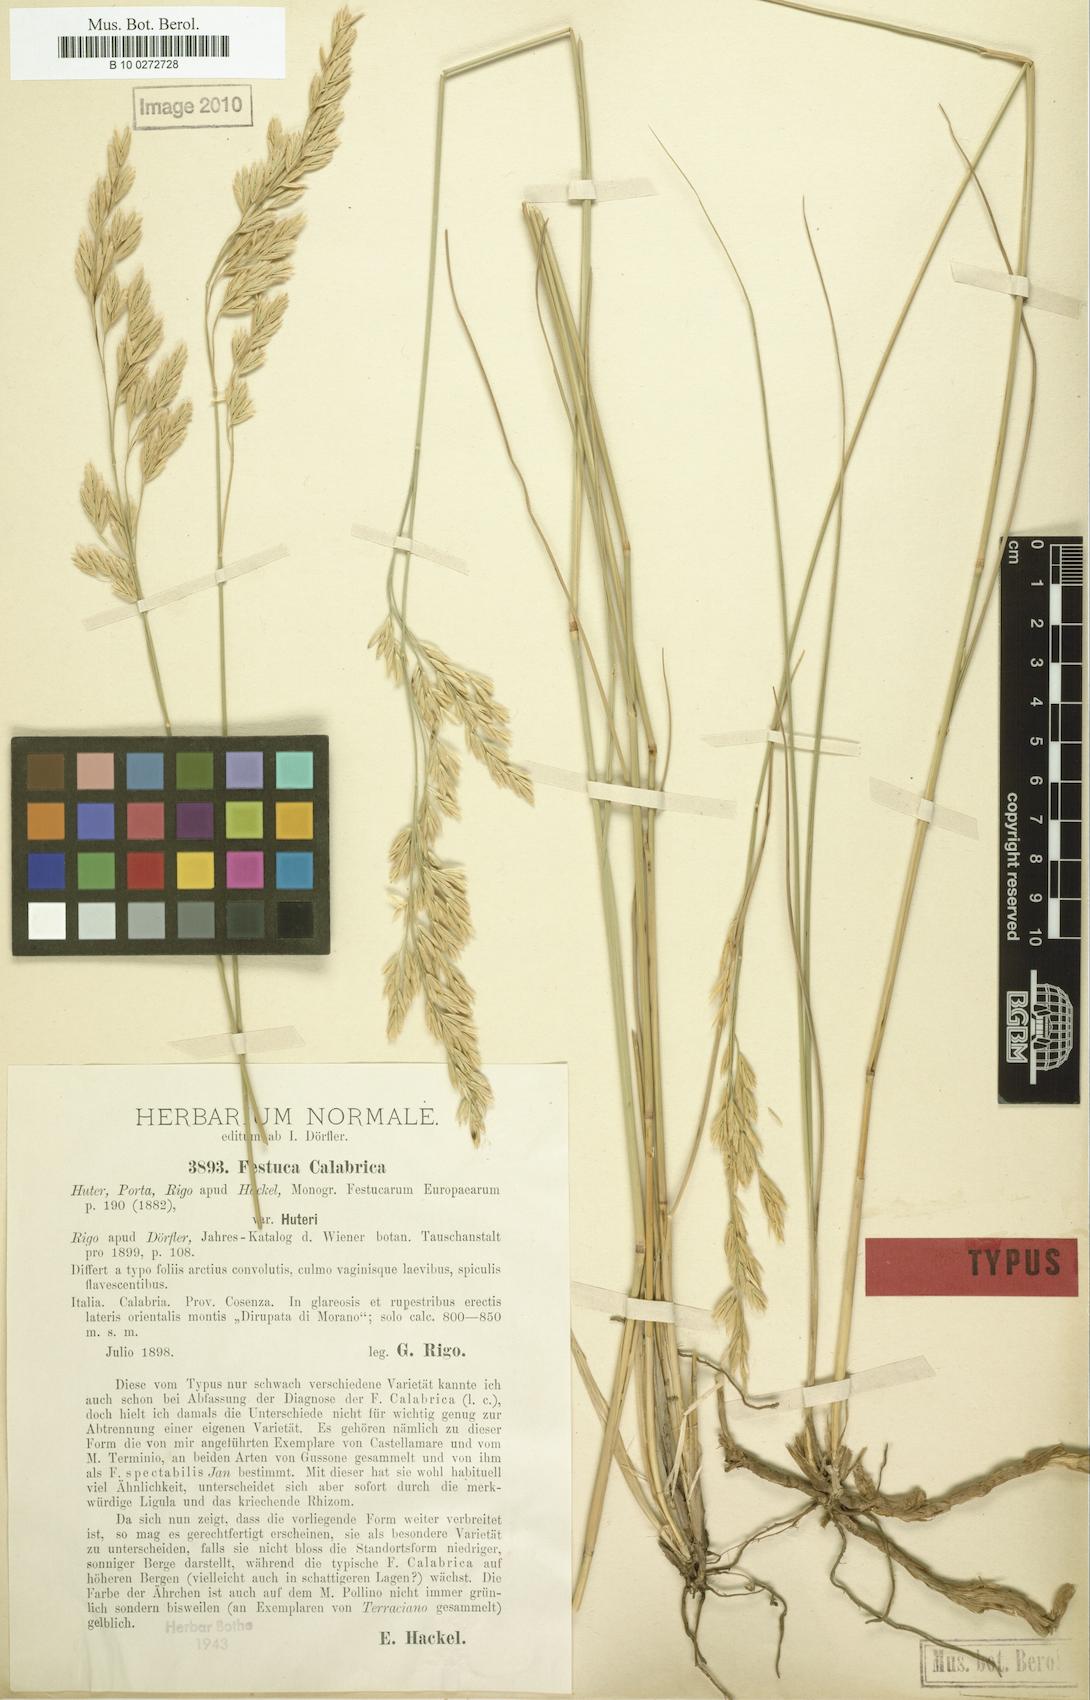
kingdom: Plantae
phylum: Tracheophyta
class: Liliopsida
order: Poales
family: Poaceae
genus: Festuca
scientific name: Festuca calabrica
